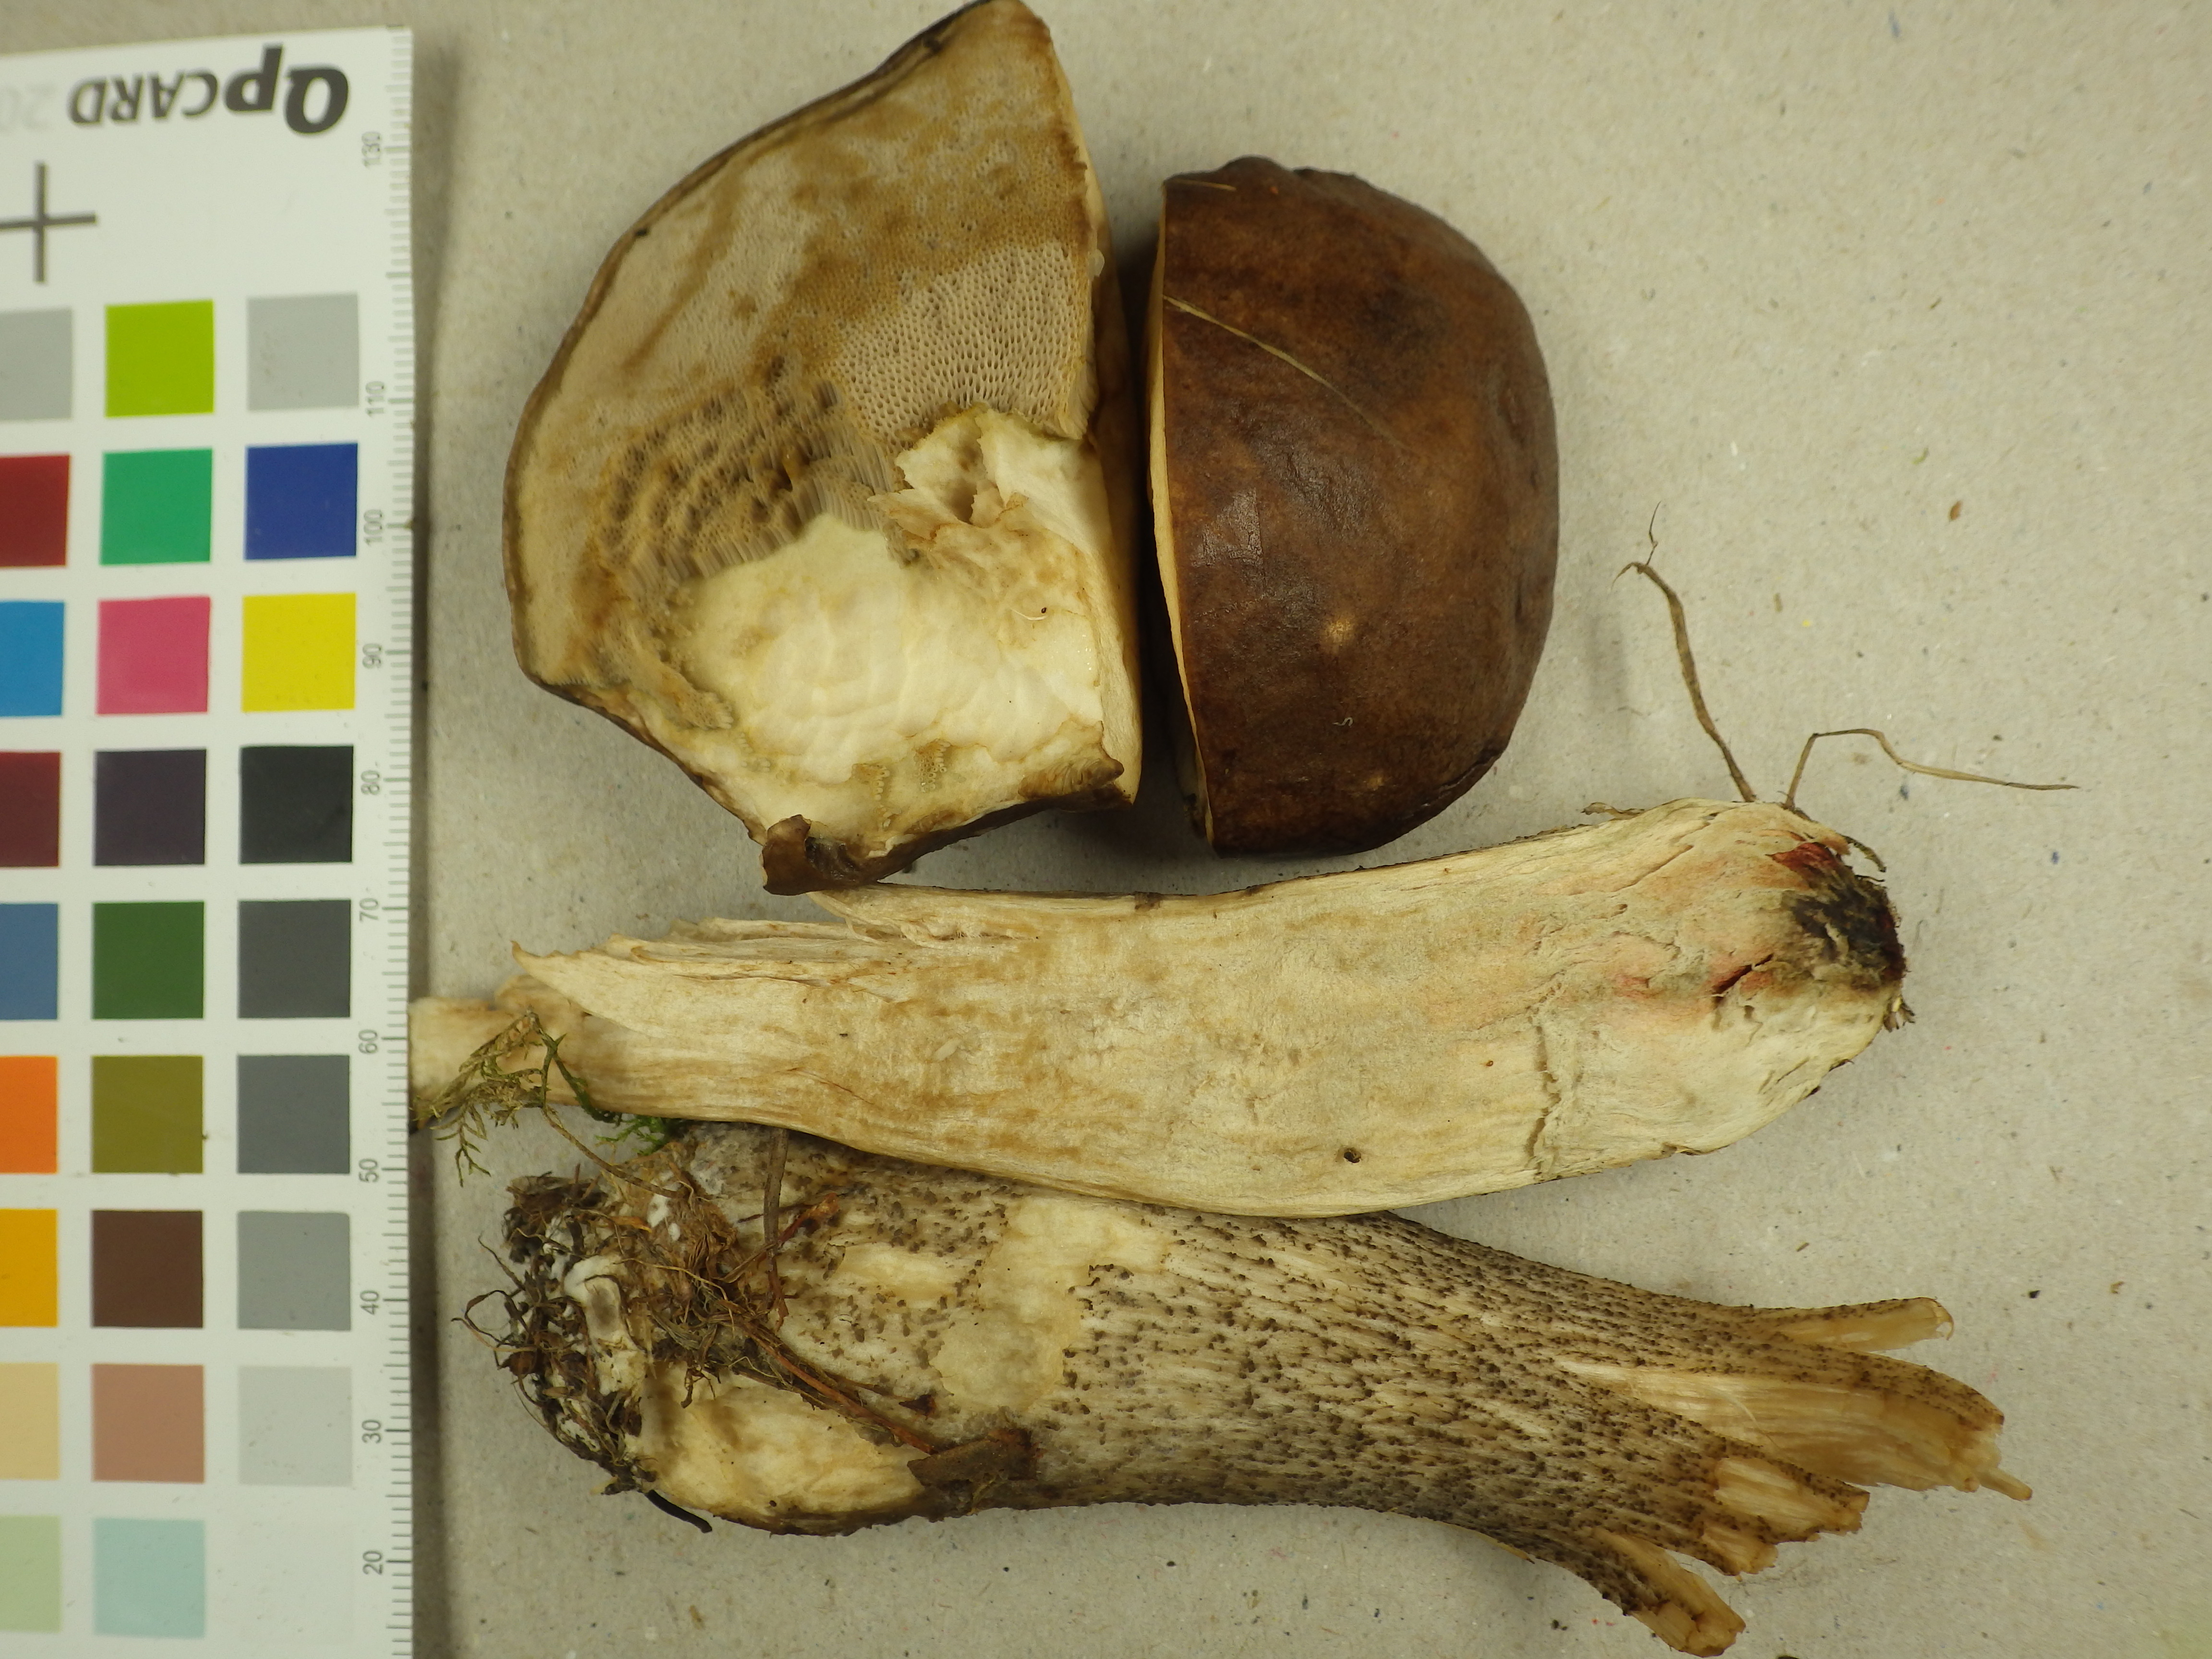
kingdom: Fungi
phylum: Basidiomycota
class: Agaricomycetes
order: Boletales
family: Boletaceae
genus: Leccinum
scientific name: Leccinum scabrum
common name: Blushing bolete
